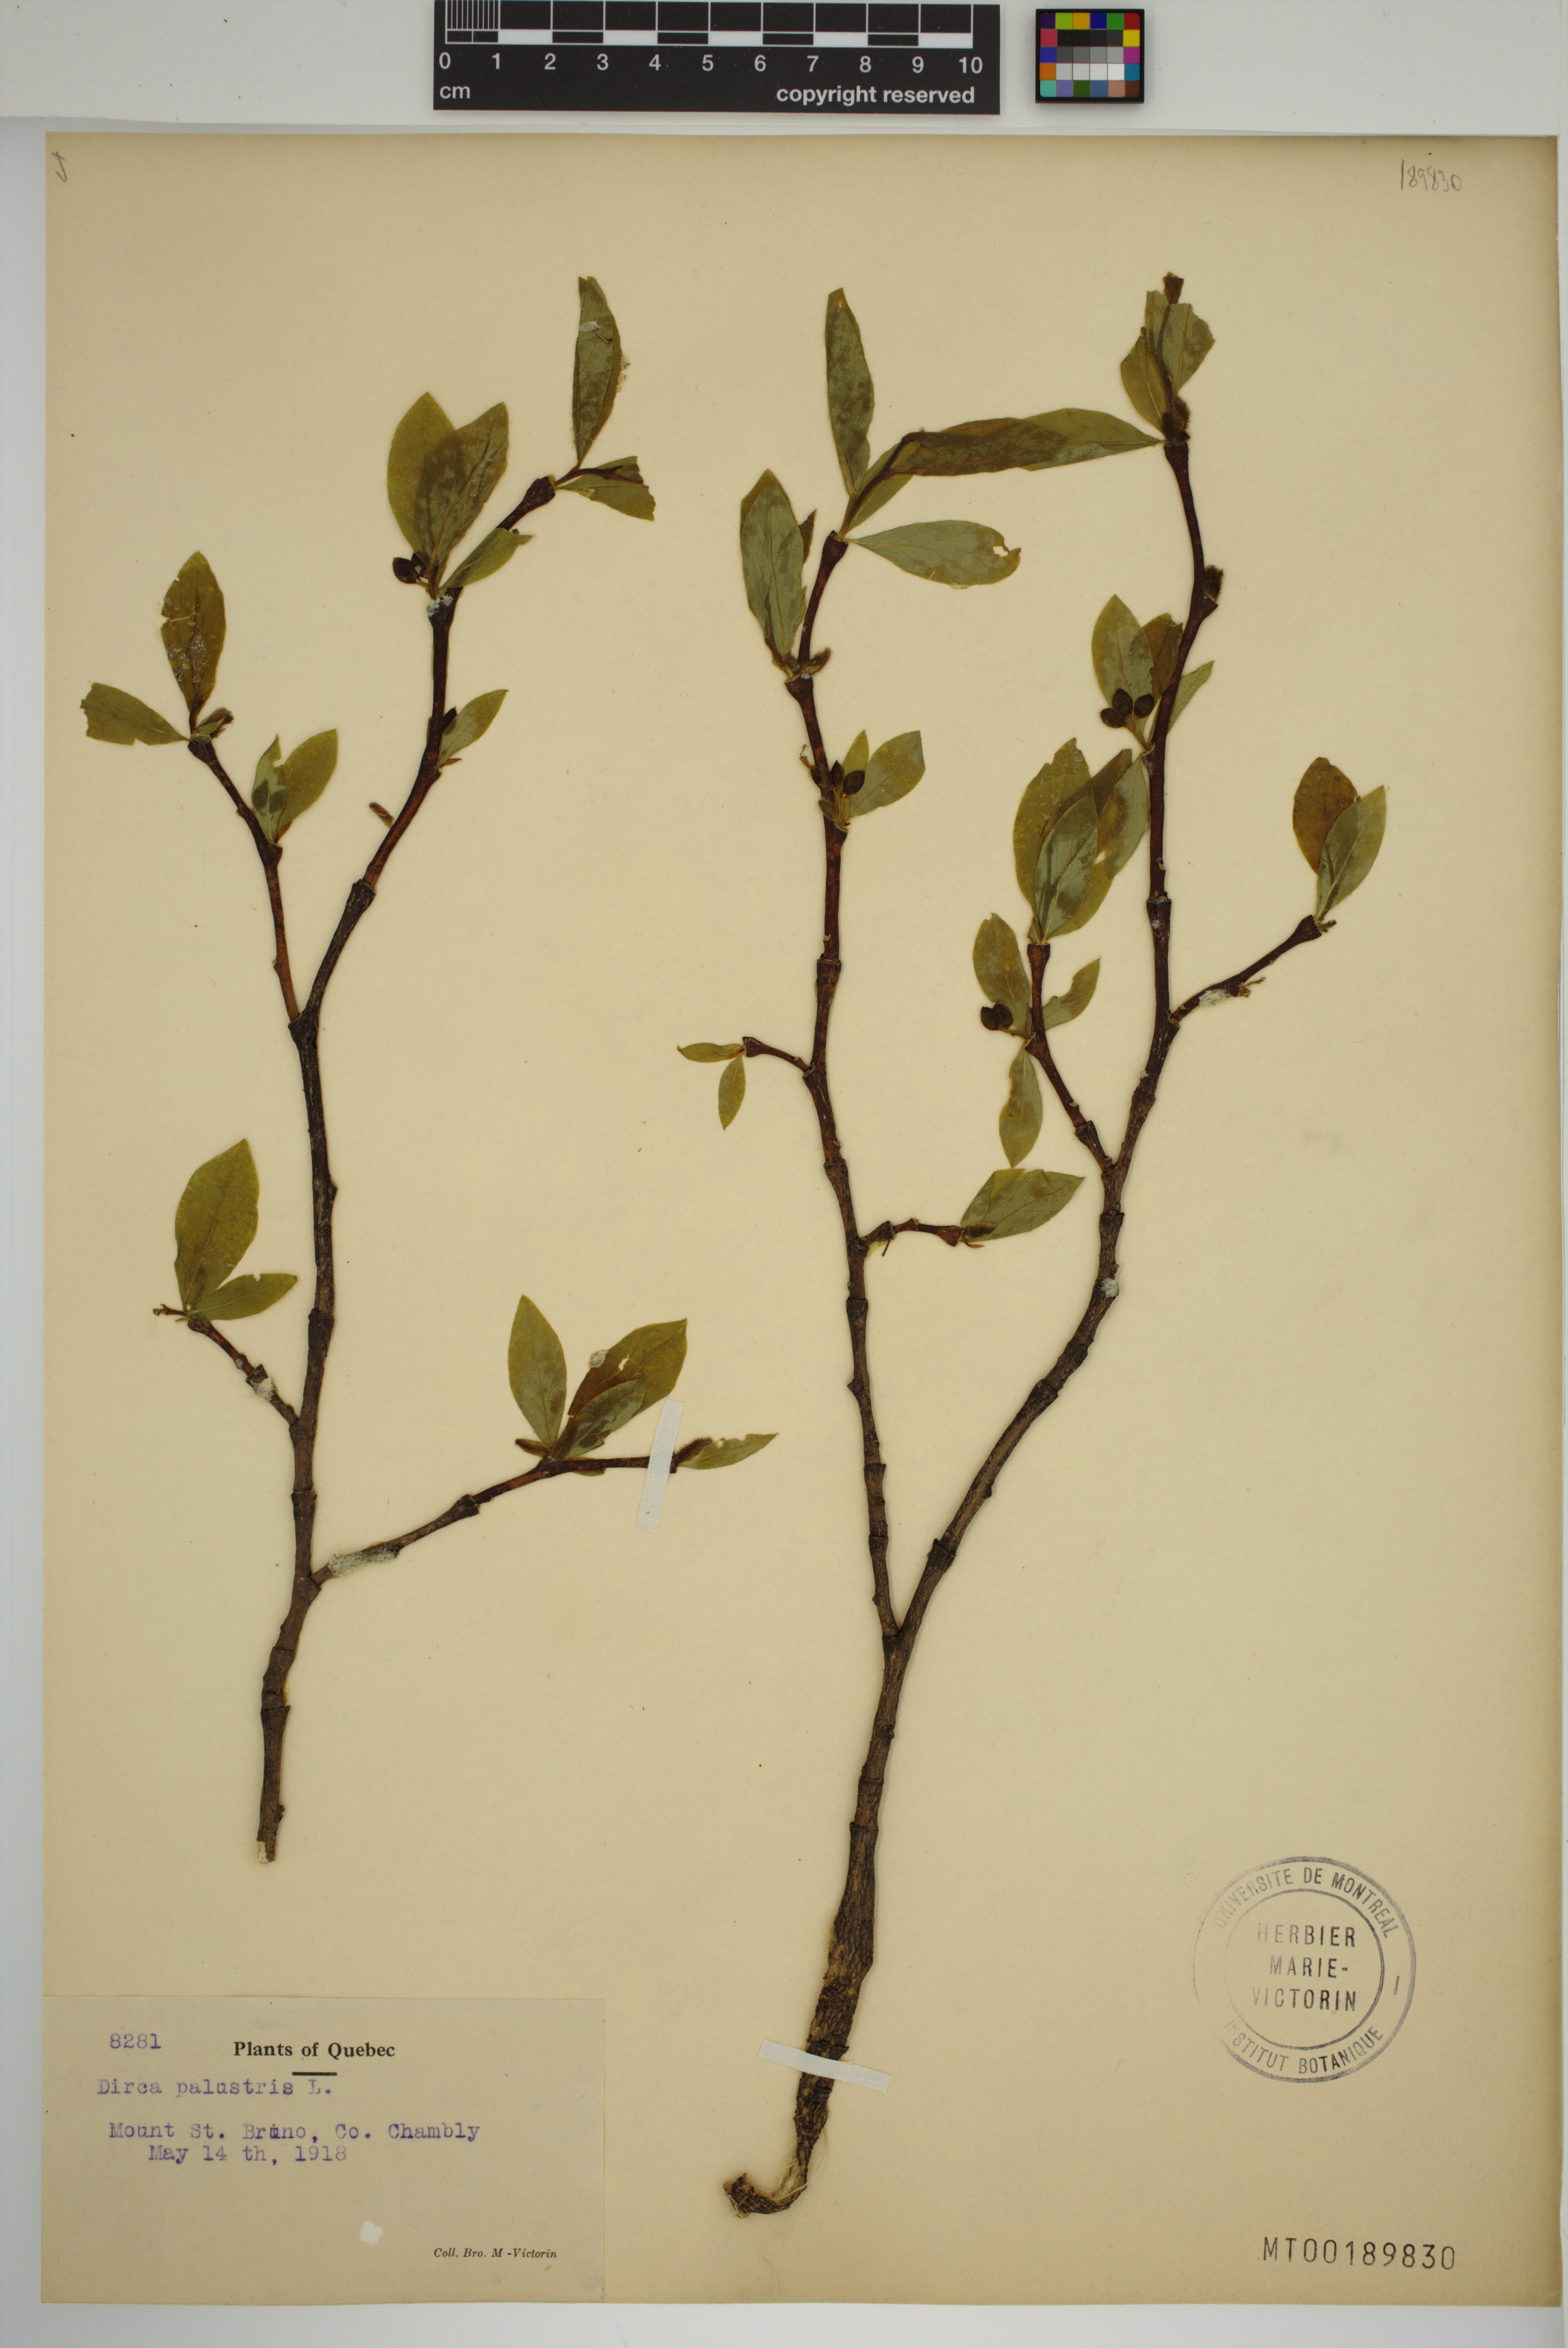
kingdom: Plantae
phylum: Tracheophyta
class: Magnoliopsida
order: Malvales
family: Thymelaeaceae
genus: Dirca
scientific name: Dirca palustris
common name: Leatherwood
